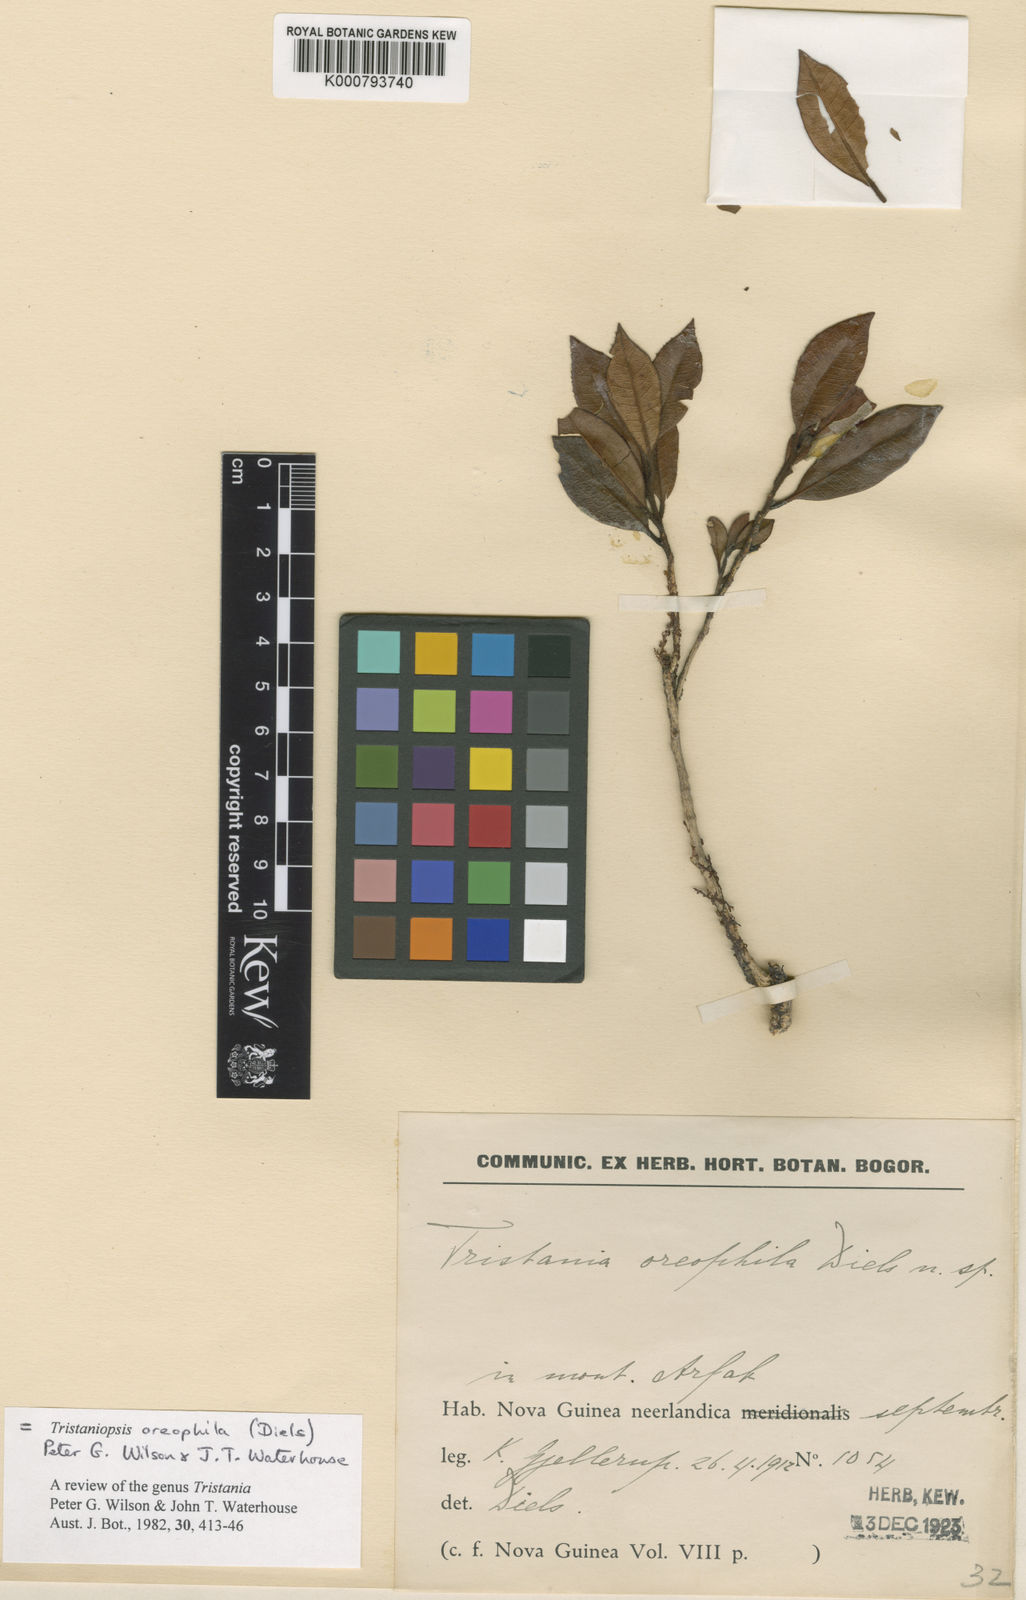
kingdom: Plantae
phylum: Tracheophyta
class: Magnoliopsida
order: Myrtales
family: Myrtaceae
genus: Tristaniopsis
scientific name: Tristaniopsis oreophila
